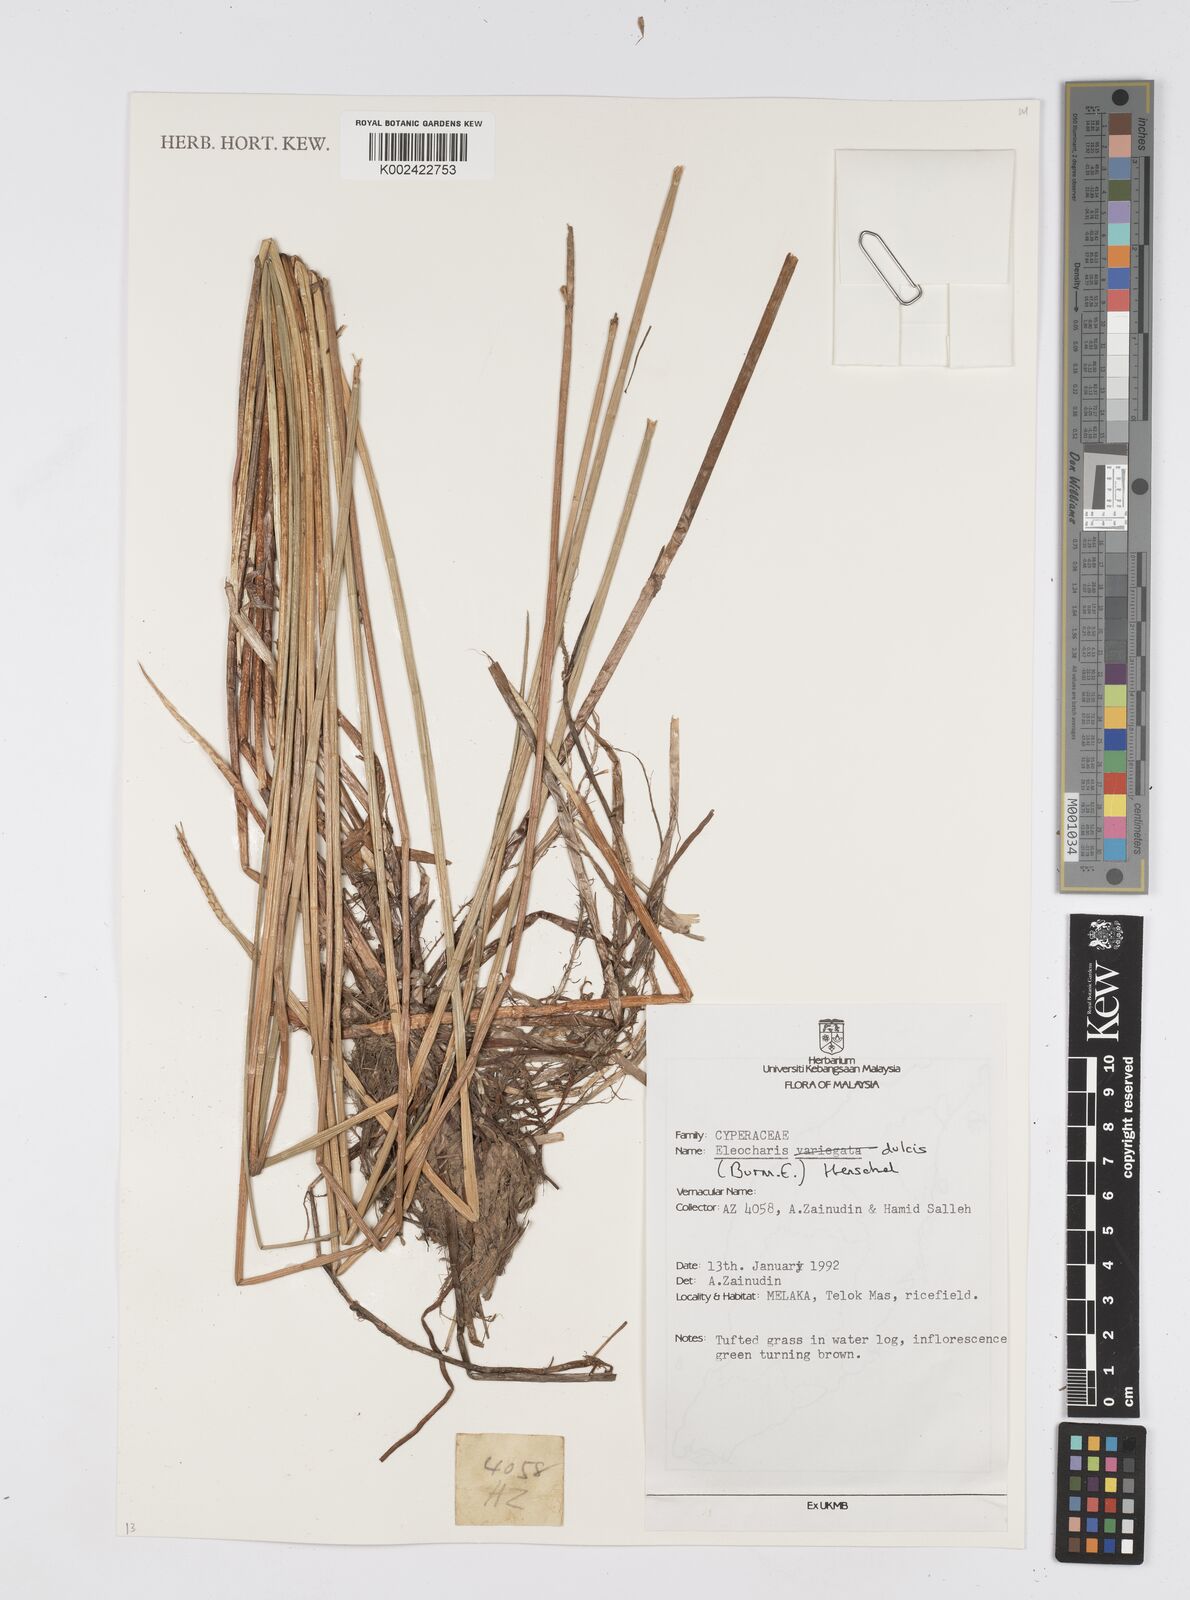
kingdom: Plantae
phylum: Tracheophyta
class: Liliopsida
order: Poales
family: Cyperaceae
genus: Eleocharis
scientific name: Eleocharis dulcis
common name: Chinese water chestnut
